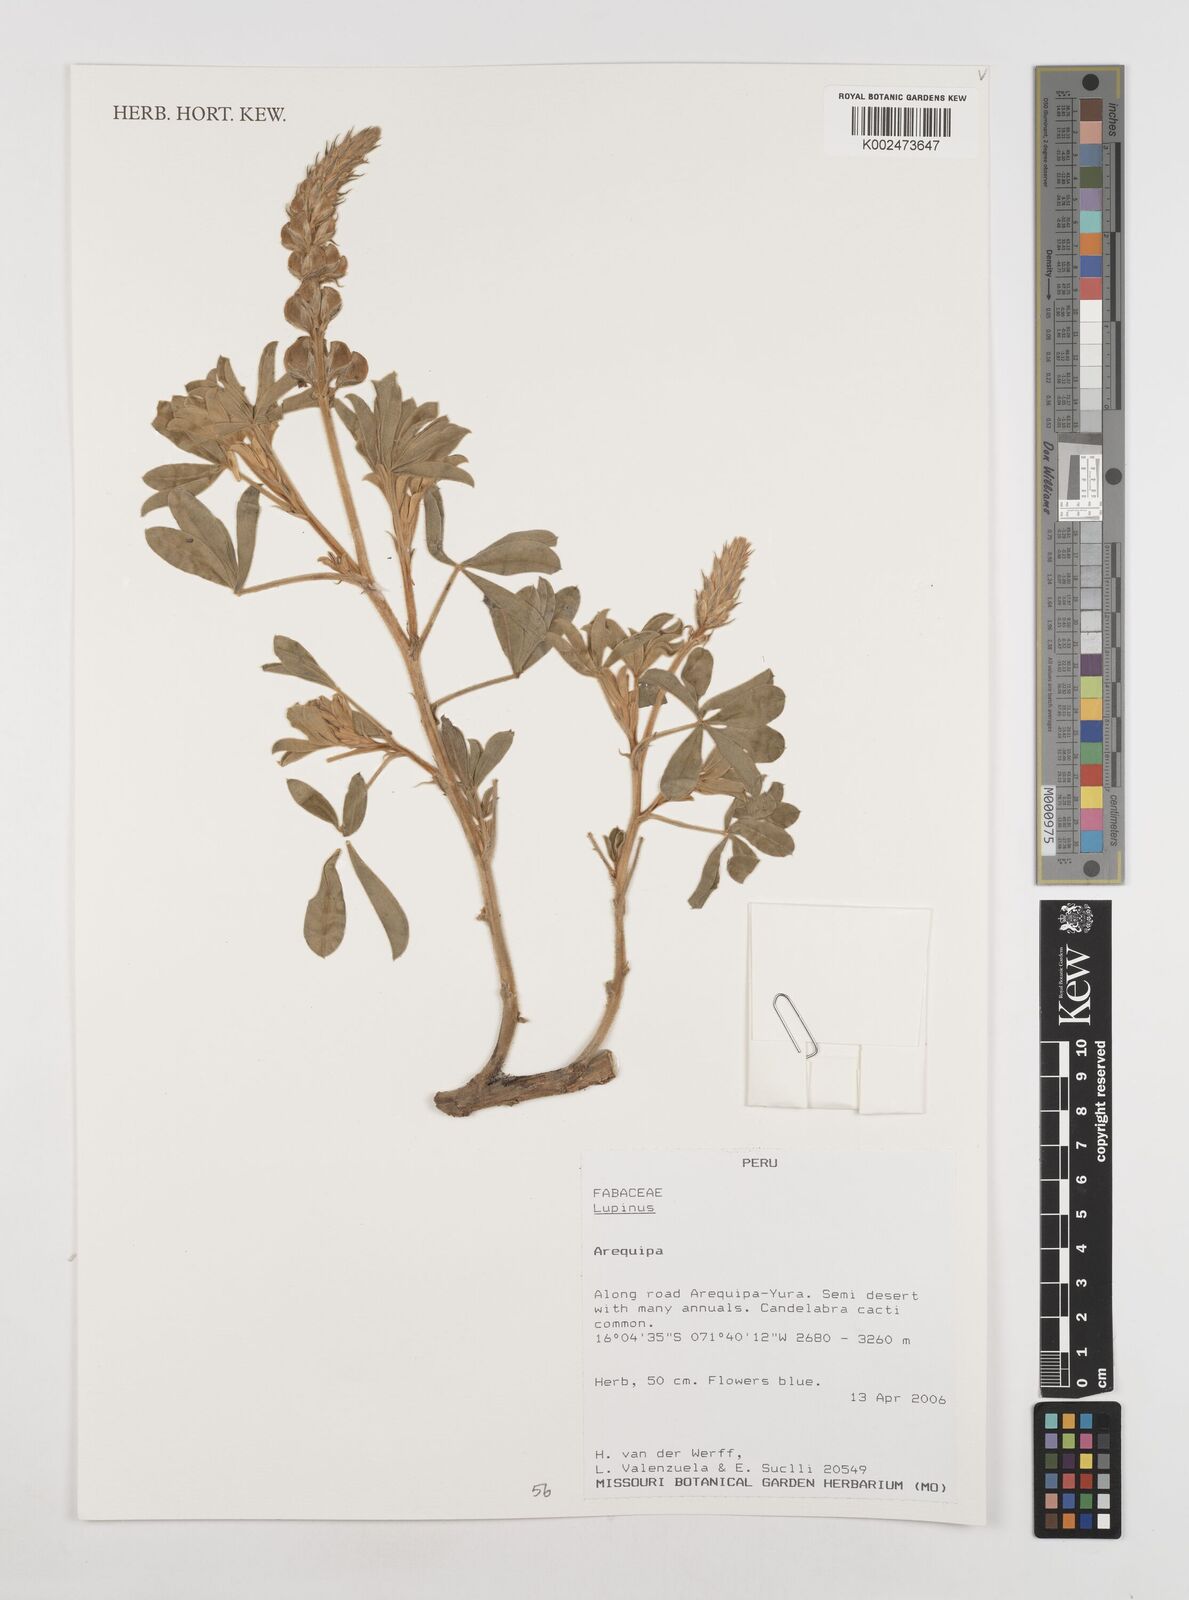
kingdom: Plantae
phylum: Tracheophyta
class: Magnoliopsida
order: Fabales
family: Fabaceae
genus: Lupinus
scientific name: Lupinus
